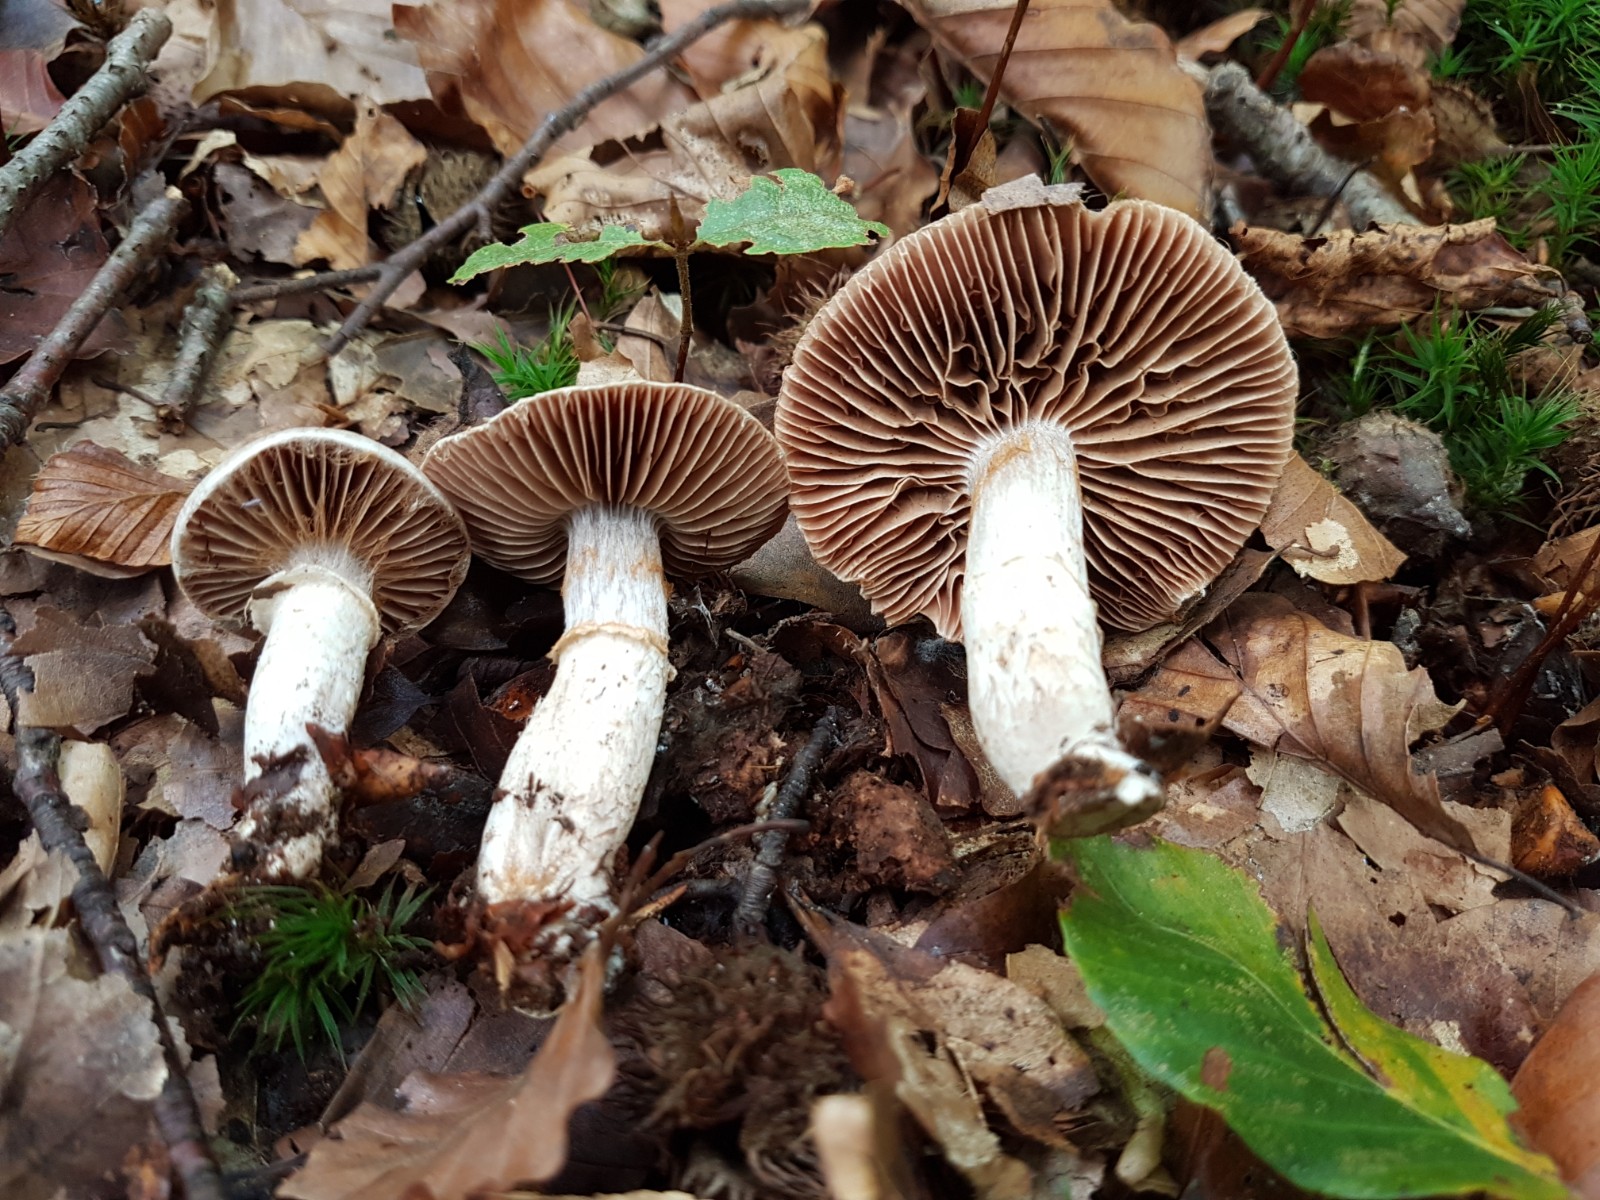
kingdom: Fungi
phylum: Basidiomycota
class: Agaricomycetes
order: Agaricales
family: Cortinariaceae
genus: Cortinarius
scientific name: Cortinarius torvus
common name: champignonagtig slørhat
